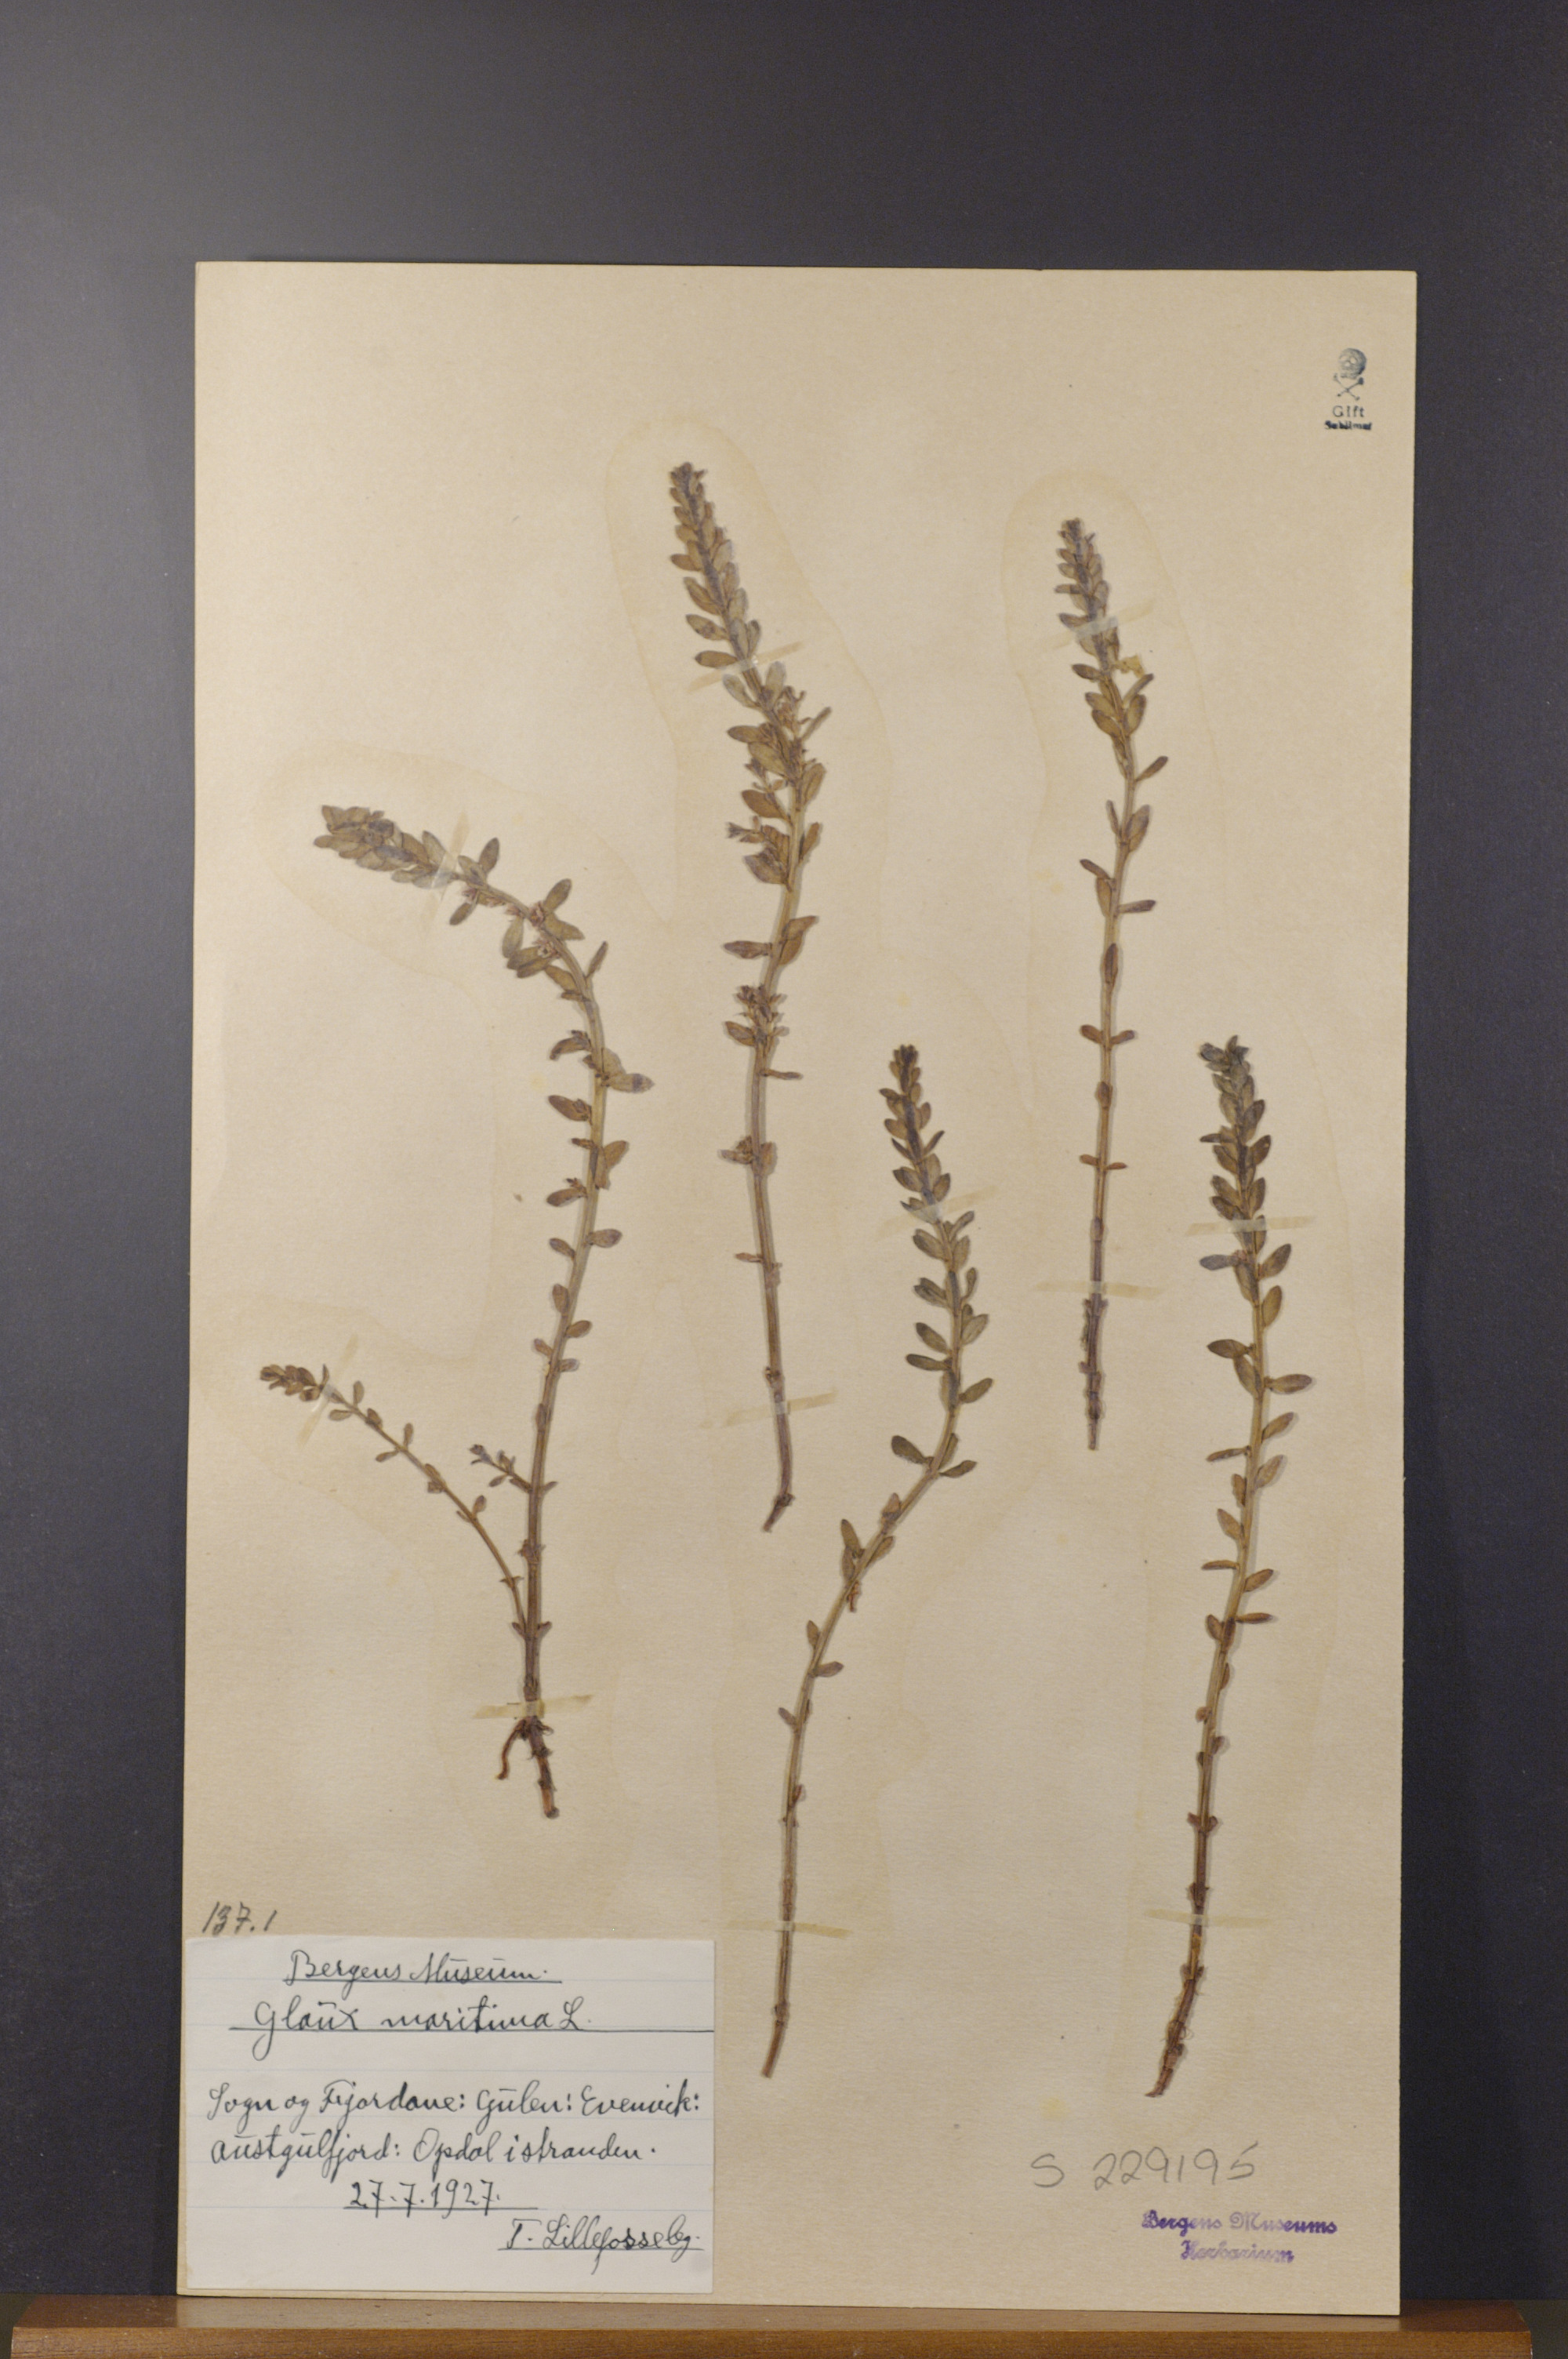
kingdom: Plantae
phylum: Tracheophyta
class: Magnoliopsida
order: Ericales
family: Primulaceae
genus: Lysimachia
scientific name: Lysimachia maritima
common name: Sea milkwort
